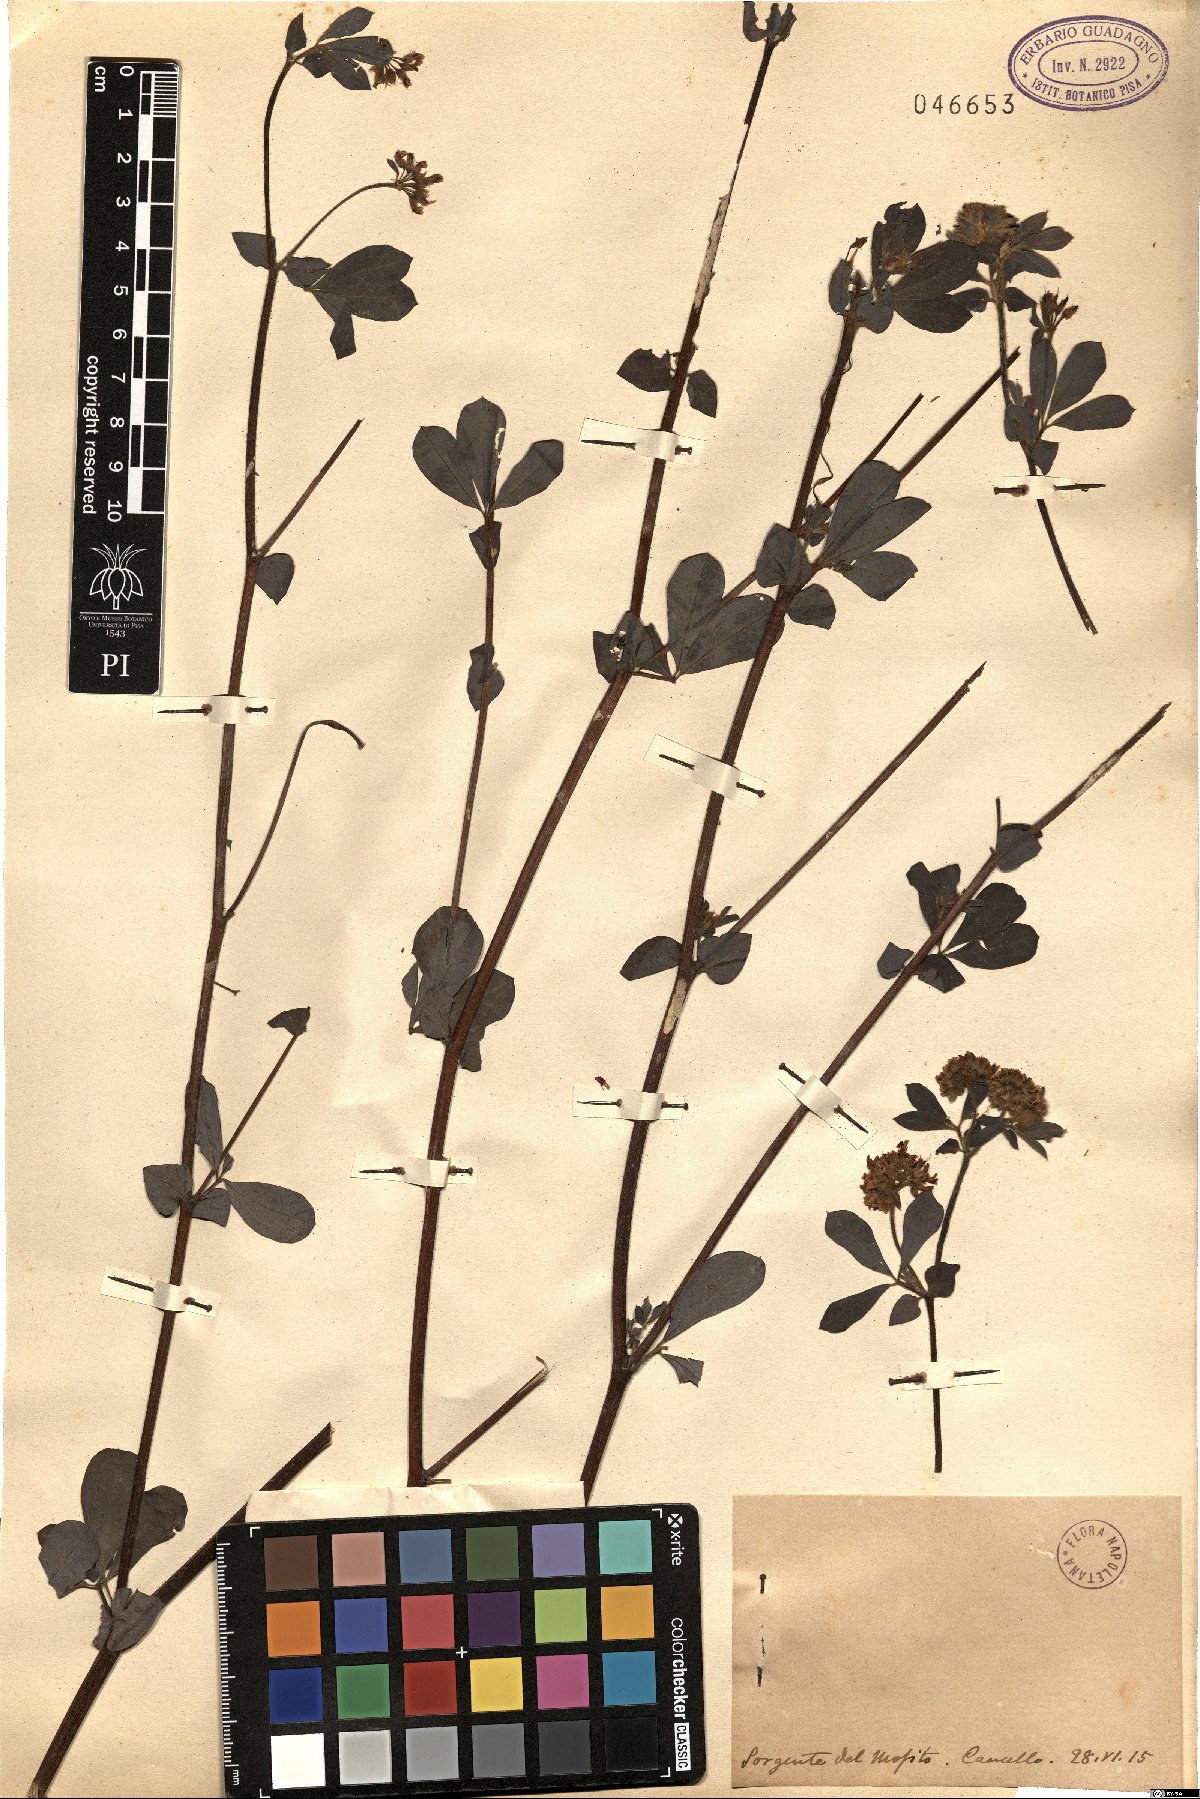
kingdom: Plantae
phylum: Tracheophyta
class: Magnoliopsida
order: Fabales
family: Fabaceae
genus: Lotus
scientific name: Lotus
